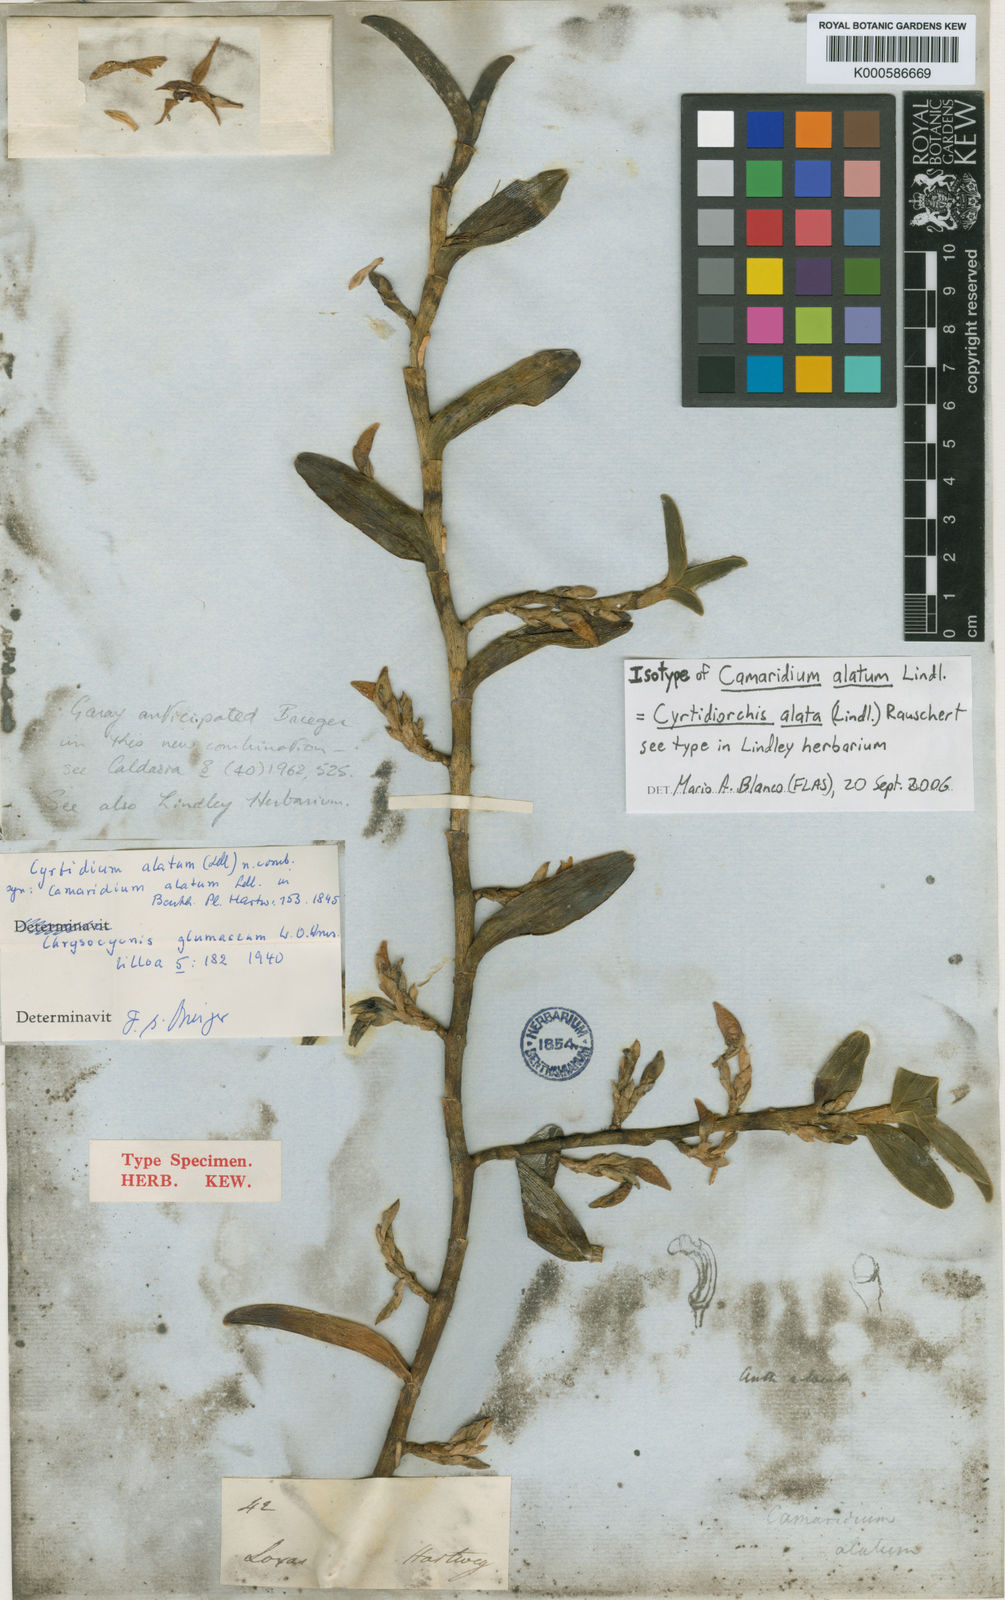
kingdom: Plantae
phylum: Tracheophyta
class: Liliopsida
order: Asparagales
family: Orchidaceae
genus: Maxillaria
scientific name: Maxillaria avis
